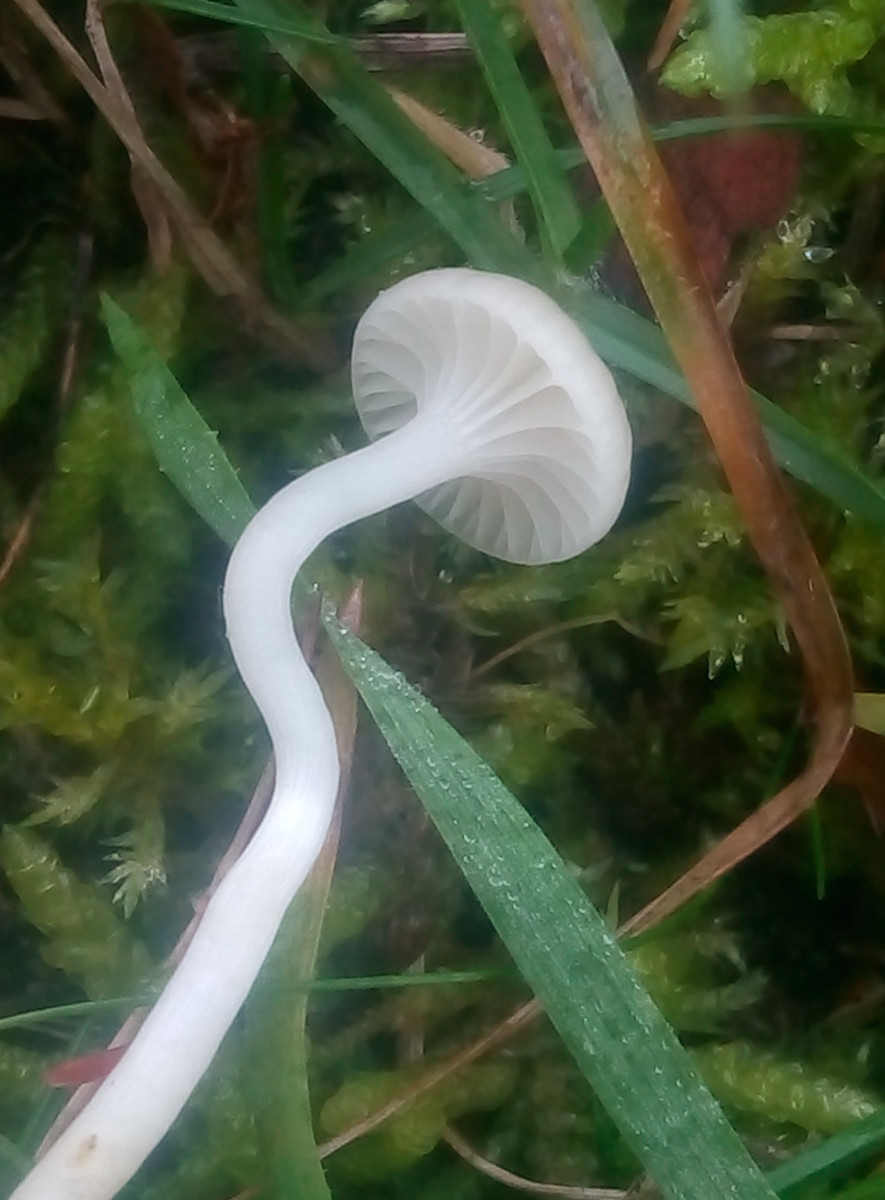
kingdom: Fungi
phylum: Basidiomycota
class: Agaricomycetes
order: Agaricales
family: Hygrophoraceae
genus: Cuphophyllus
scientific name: Cuphophyllus russocoriaceus
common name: ruslæder-vokshat
